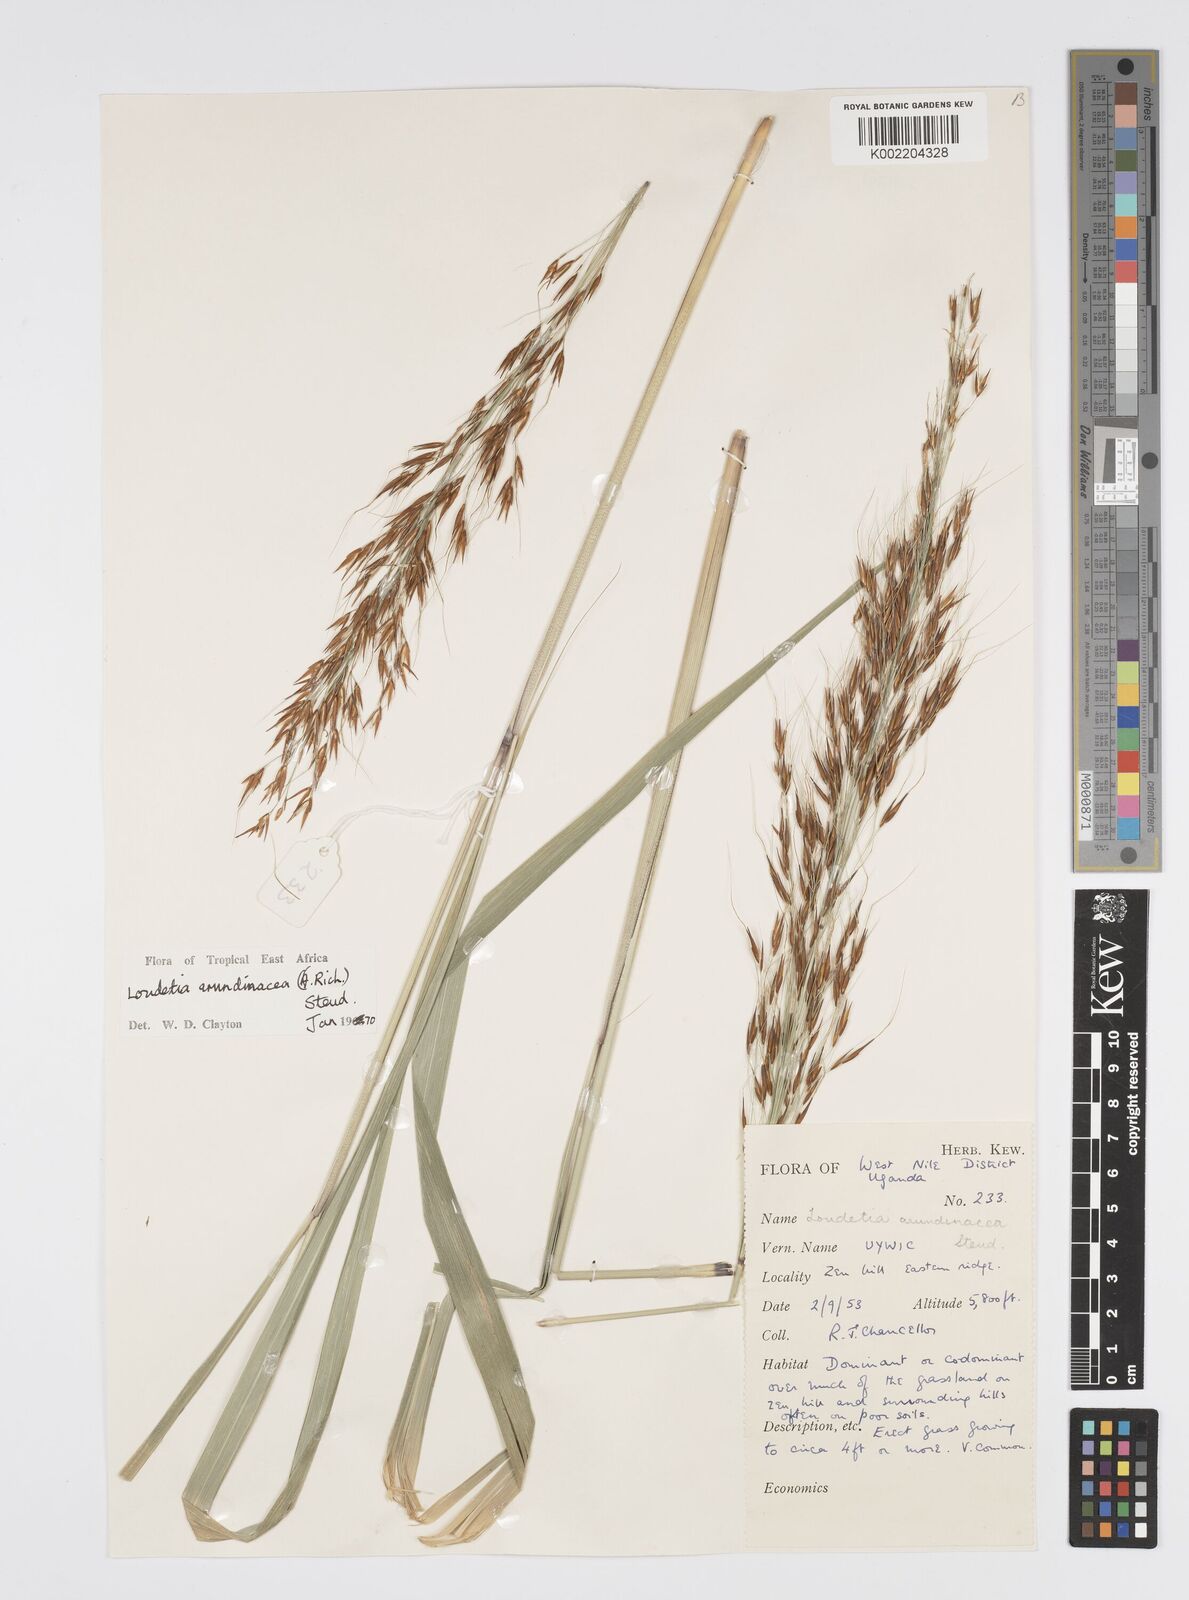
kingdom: Plantae
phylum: Tracheophyta
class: Liliopsida
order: Poales
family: Poaceae
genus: Loudetia
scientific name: Loudetia arundinacea
